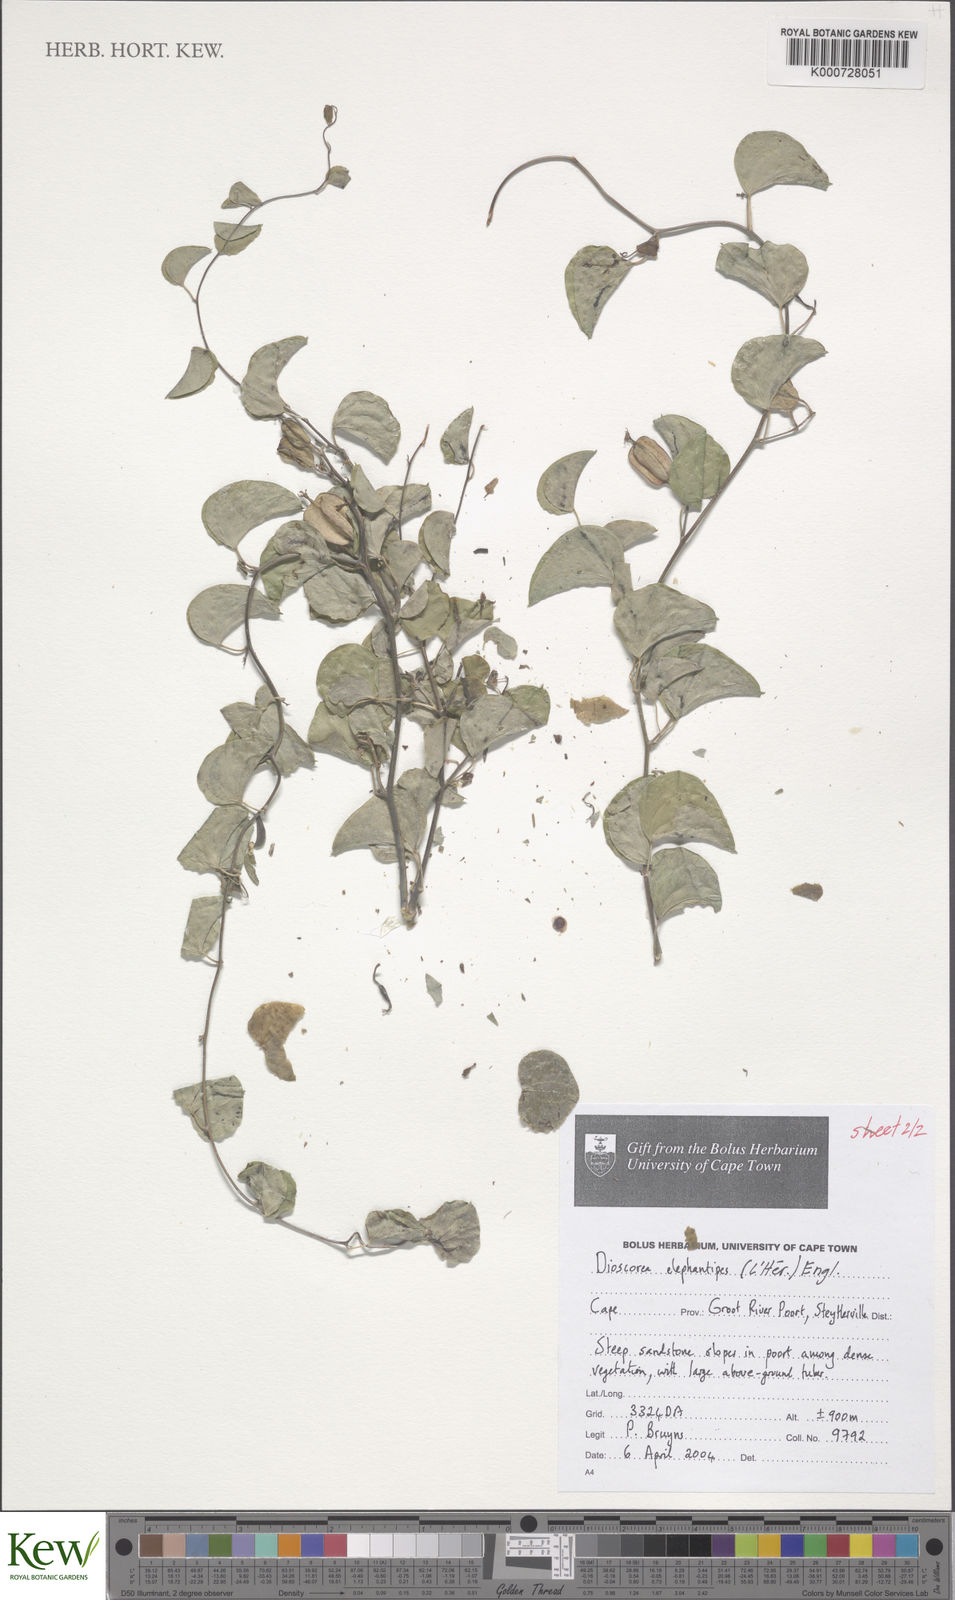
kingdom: Plantae
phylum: Tracheophyta
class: Liliopsida
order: Dioscoreales
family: Dioscoreaceae
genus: Dioscorea
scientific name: Dioscorea
